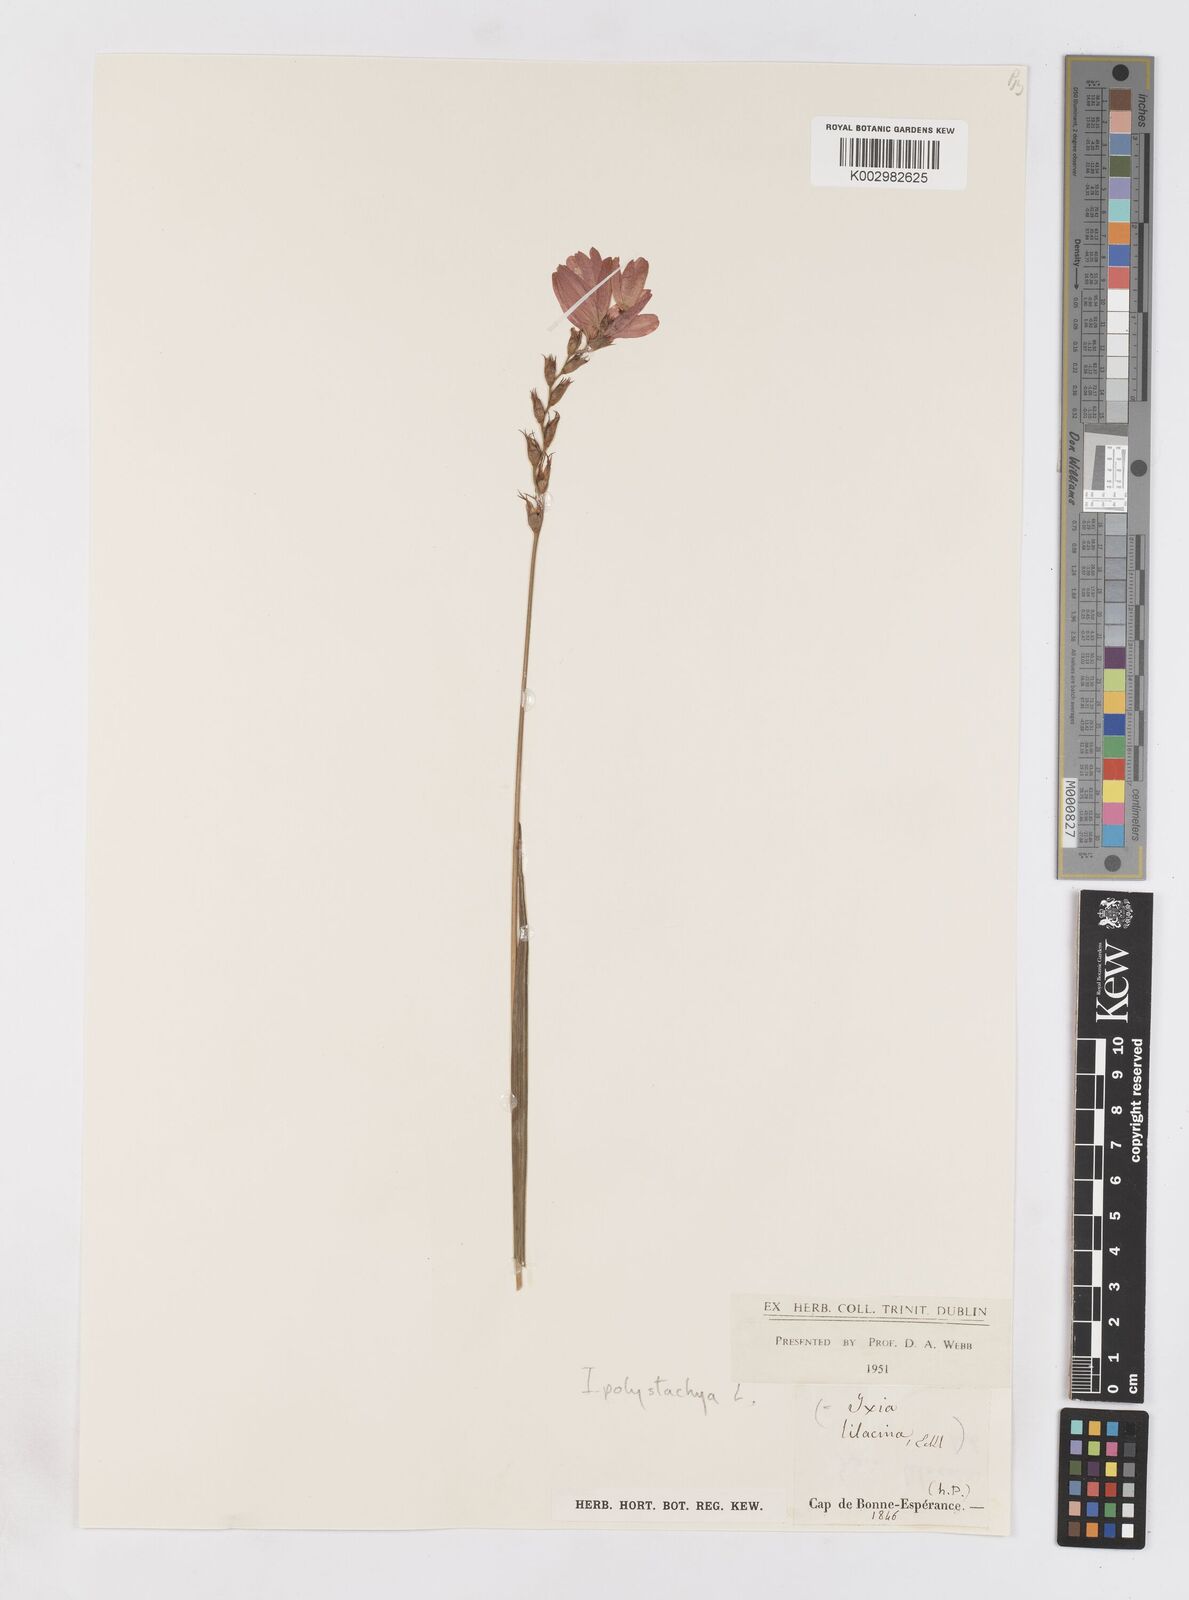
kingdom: Plantae
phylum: Tracheophyta
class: Liliopsida
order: Asparagales
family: Iridaceae
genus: Ixia
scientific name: Ixia polystachya
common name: White-and-yellow-flower cornlily
